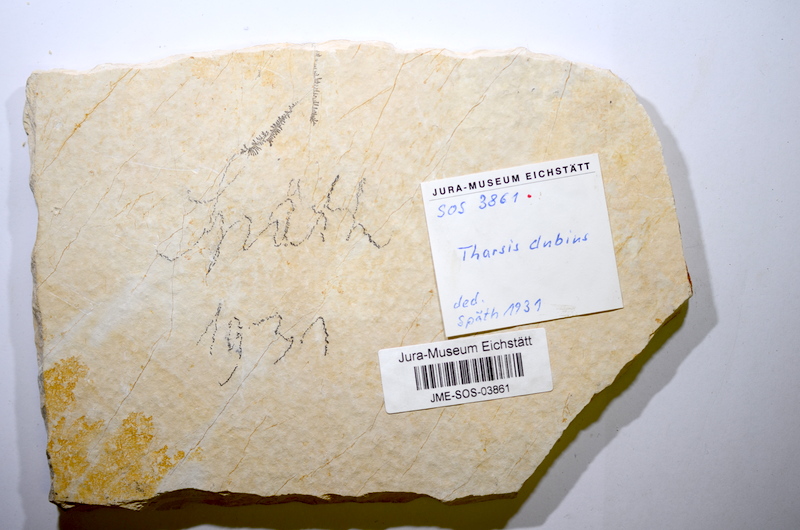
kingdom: Animalia
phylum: Chordata
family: Ascalaboidae
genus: Tharsis
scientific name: Tharsis dubius
